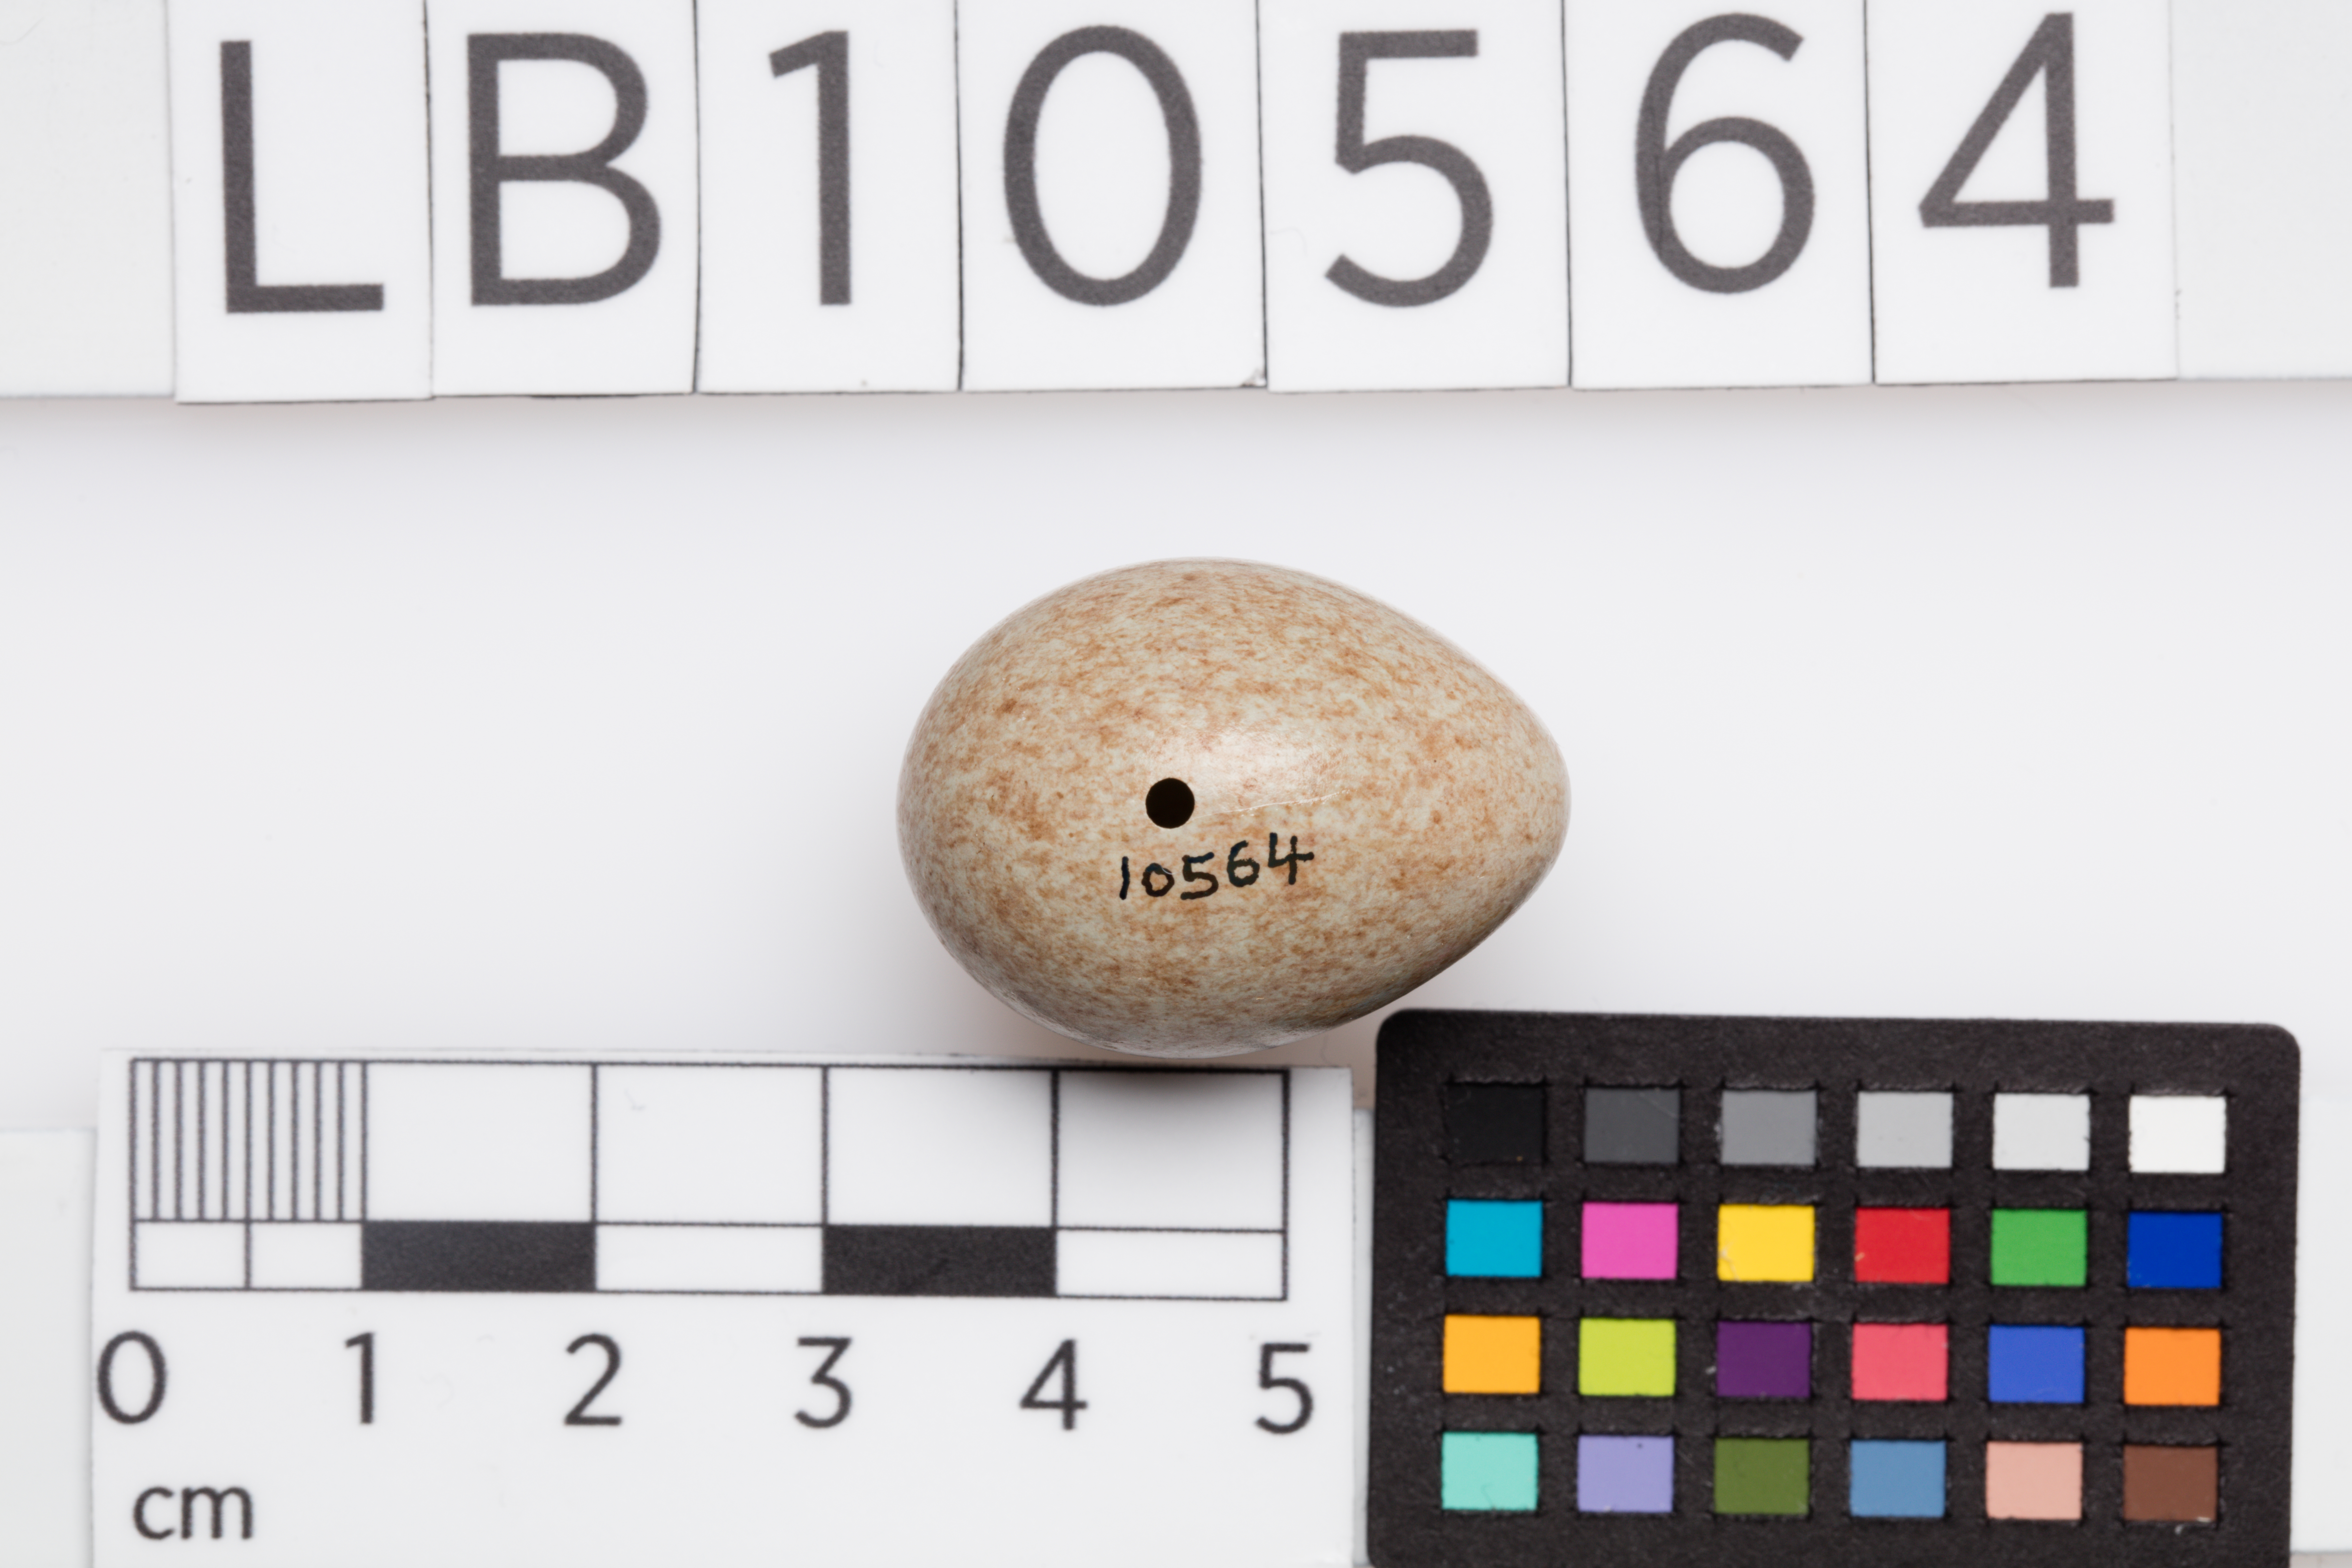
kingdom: Animalia
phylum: Chordata
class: Aves
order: Passeriformes
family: Turdidae
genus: Turdus
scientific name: Turdus merula
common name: Common blackbird
